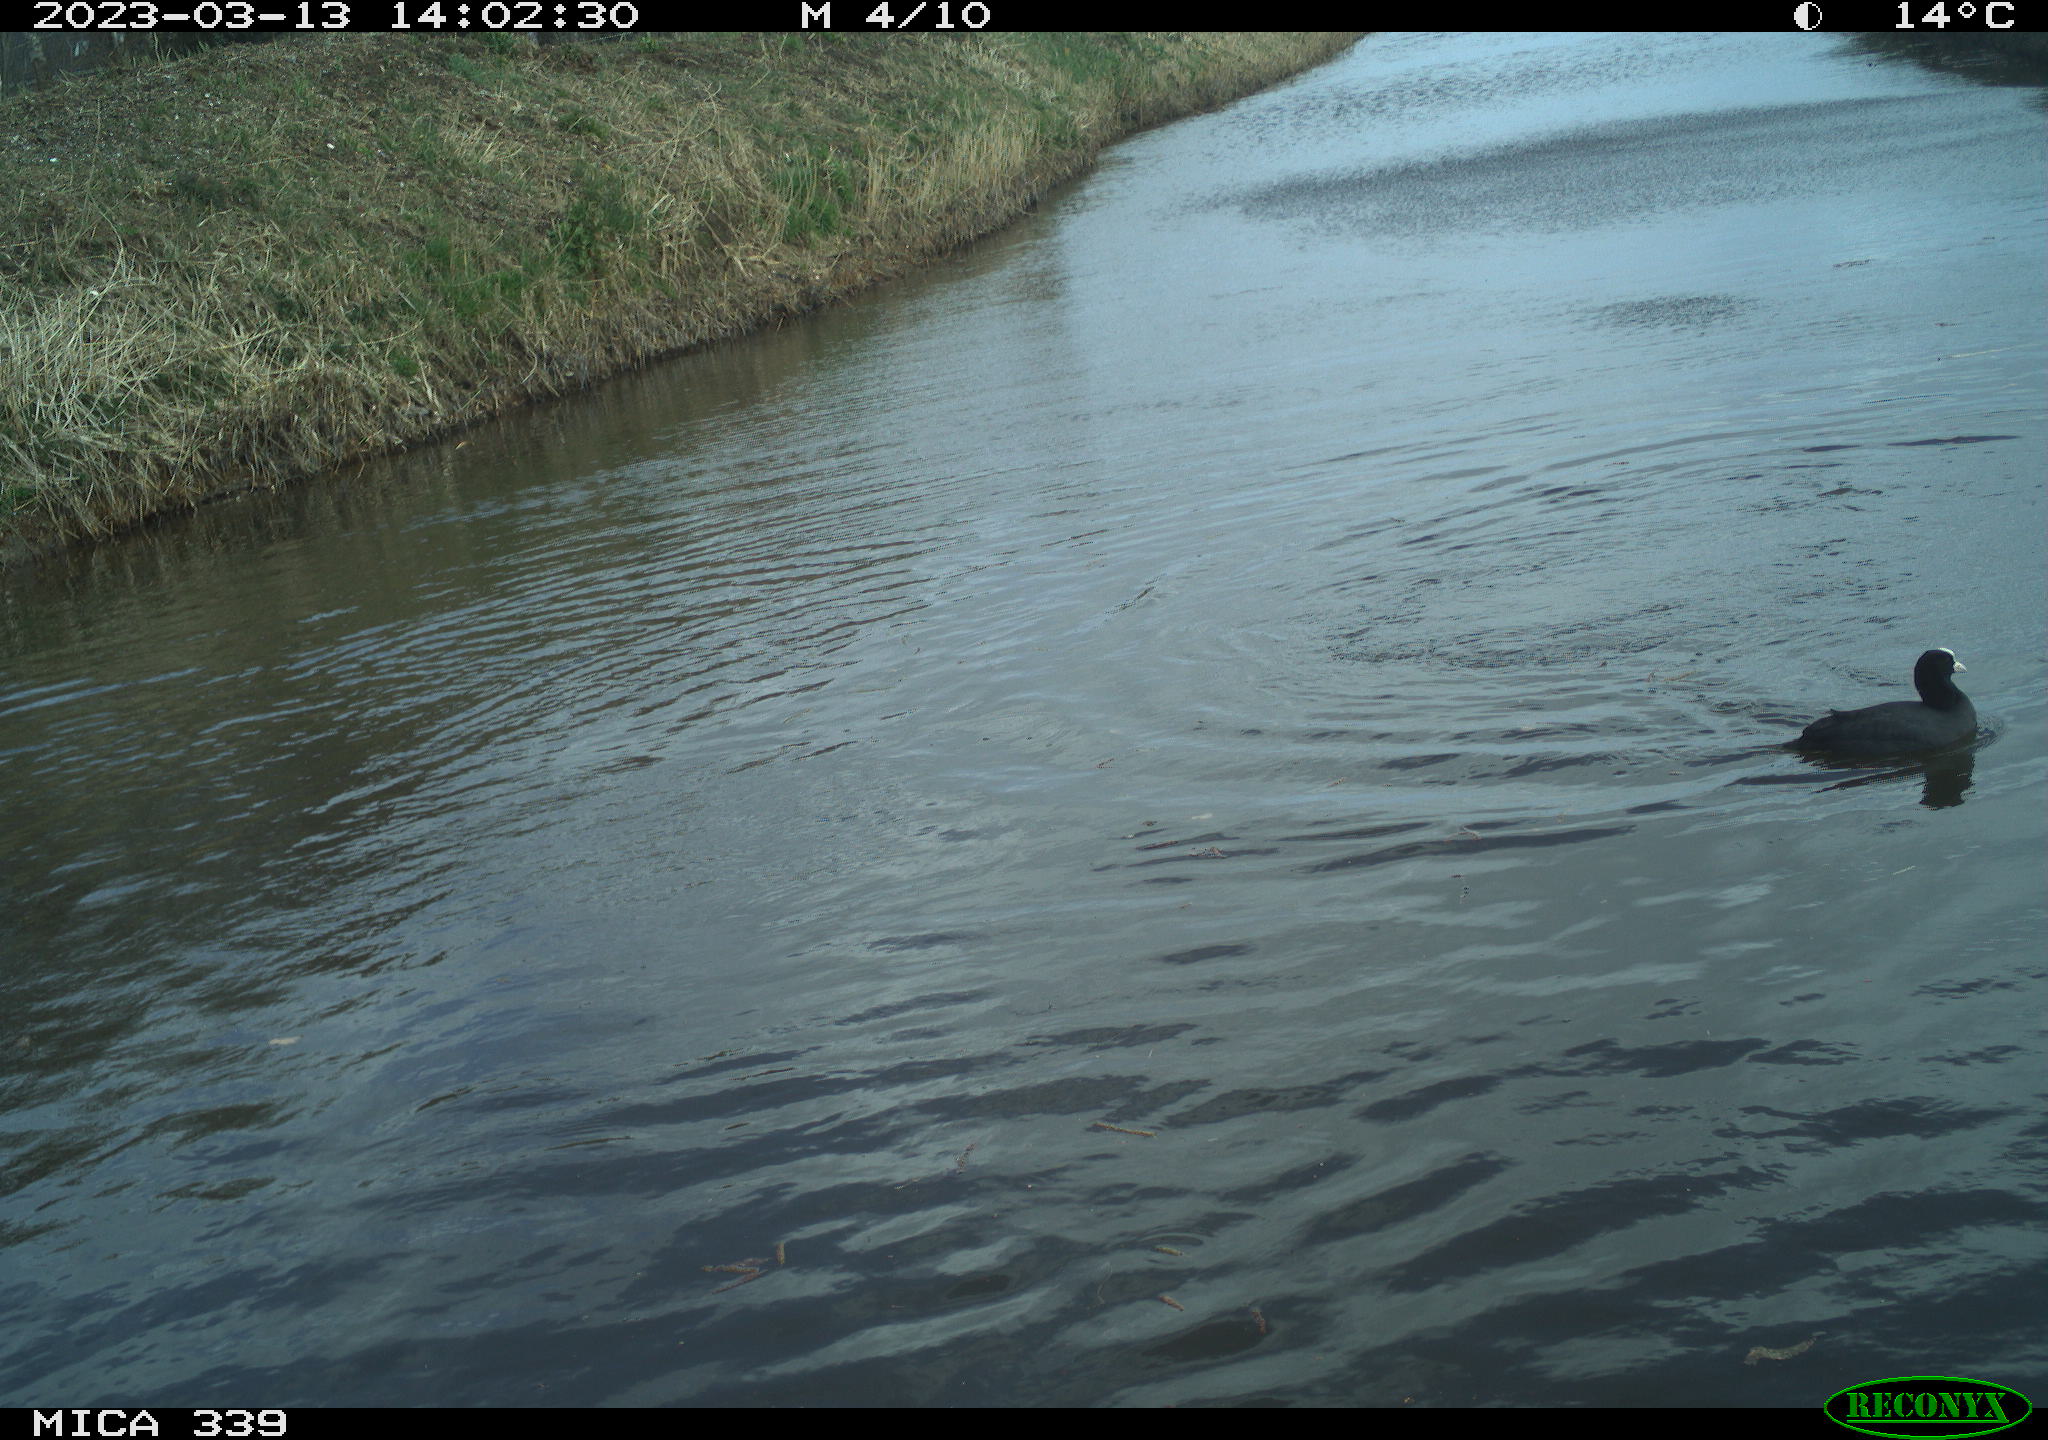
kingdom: Animalia
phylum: Chordata
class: Aves
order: Gruiformes
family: Rallidae
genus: Fulica
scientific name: Fulica atra
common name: Eurasian coot
